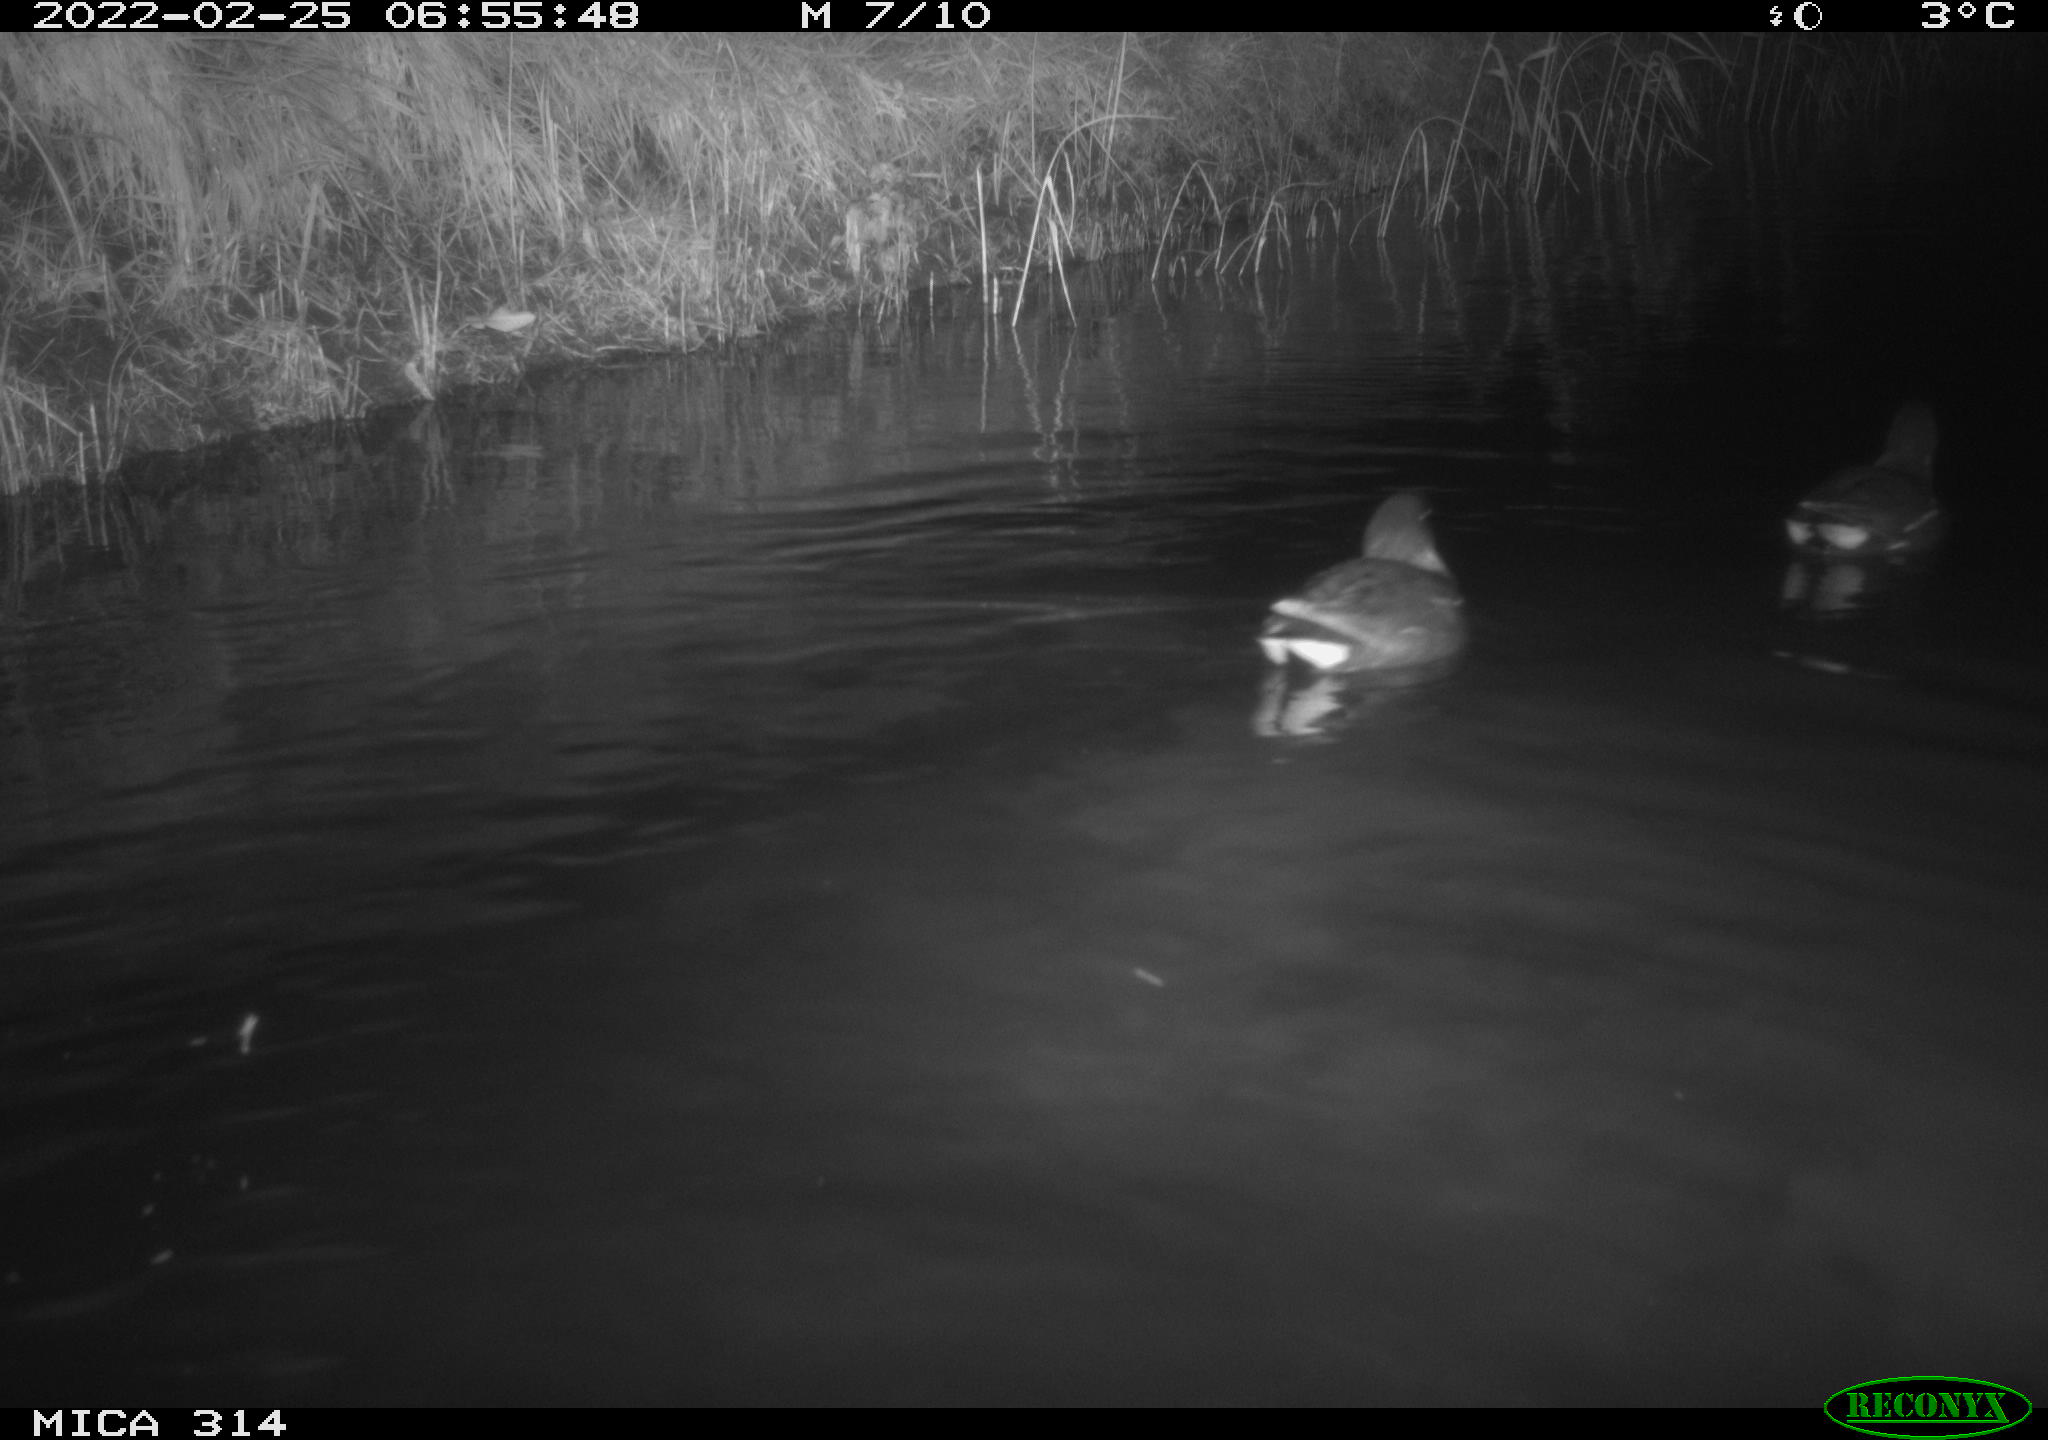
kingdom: Animalia
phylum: Chordata
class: Aves
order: Gruiformes
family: Rallidae
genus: Gallinula
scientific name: Gallinula chloropus
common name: Common moorhen
